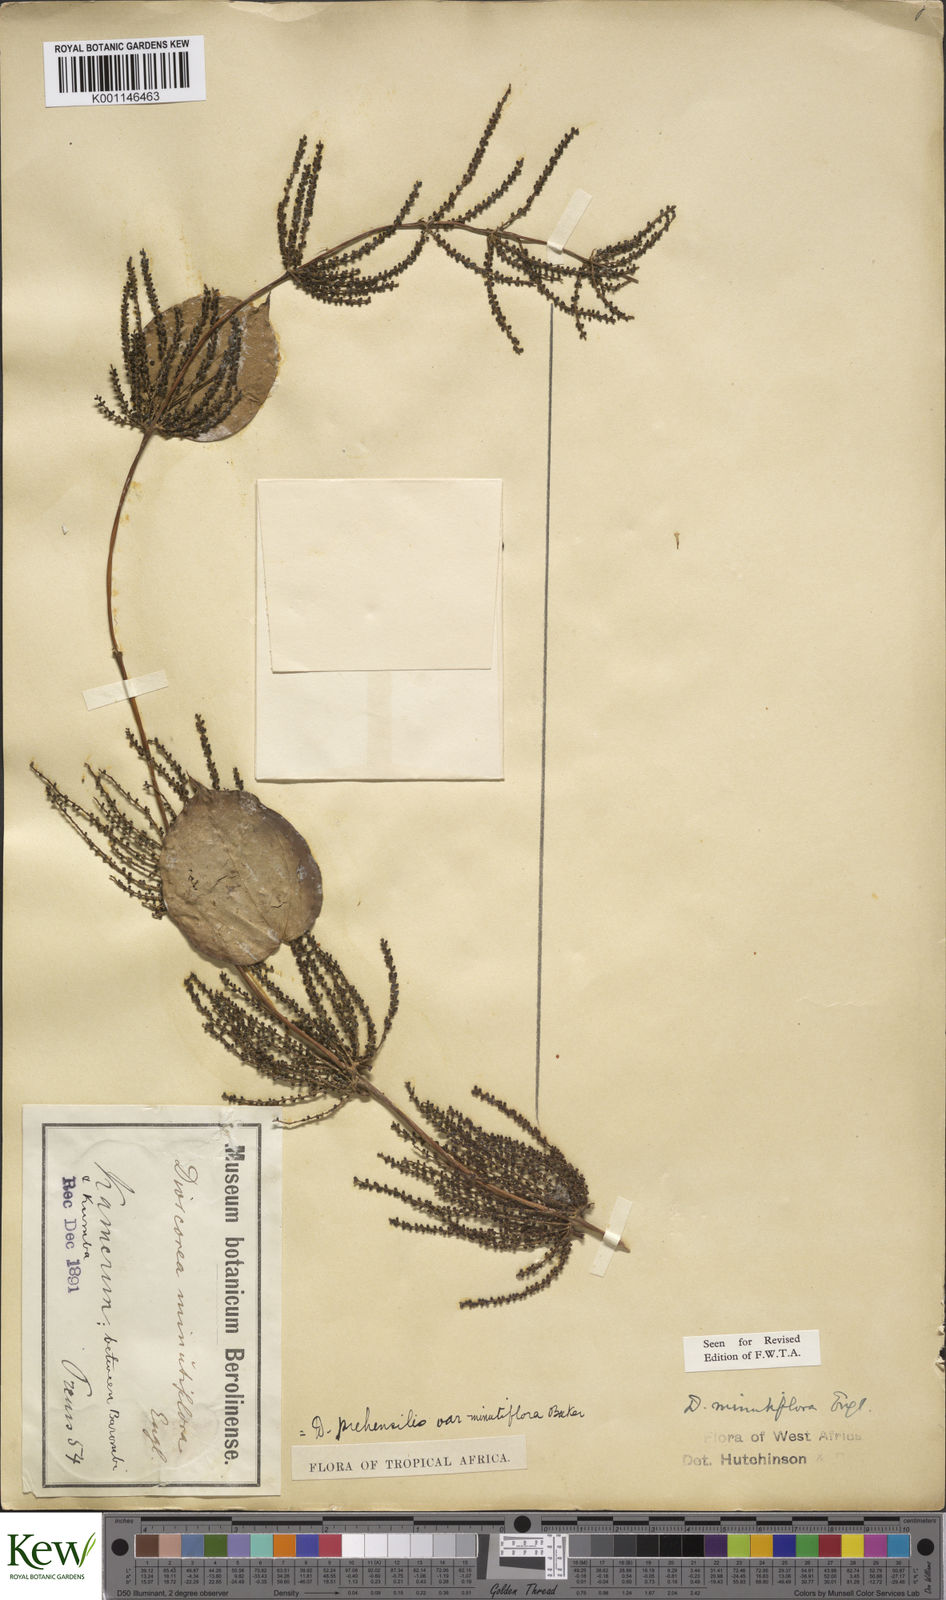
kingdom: Plantae
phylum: Tracheophyta
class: Liliopsida
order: Dioscoreales
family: Dioscoreaceae
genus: Dioscorea
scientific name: Dioscorea minutiflora
